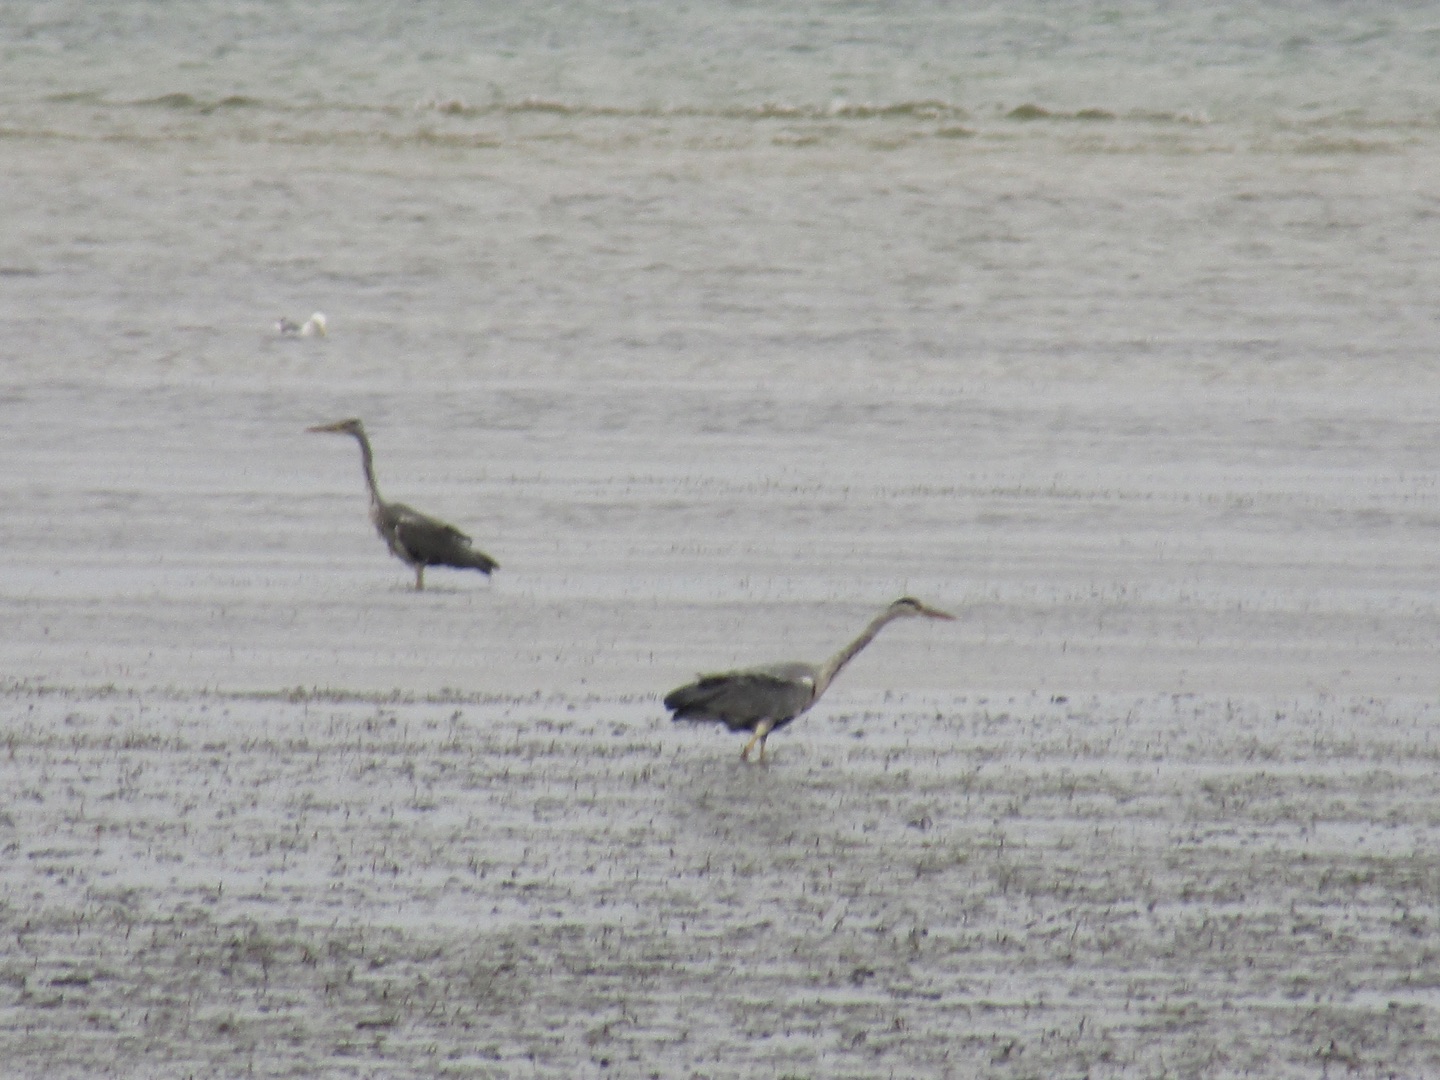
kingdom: Animalia
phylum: Chordata
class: Aves
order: Pelecaniformes
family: Ardeidae
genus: Ardea
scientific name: Ardea cinerea
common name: Fiskehejre
